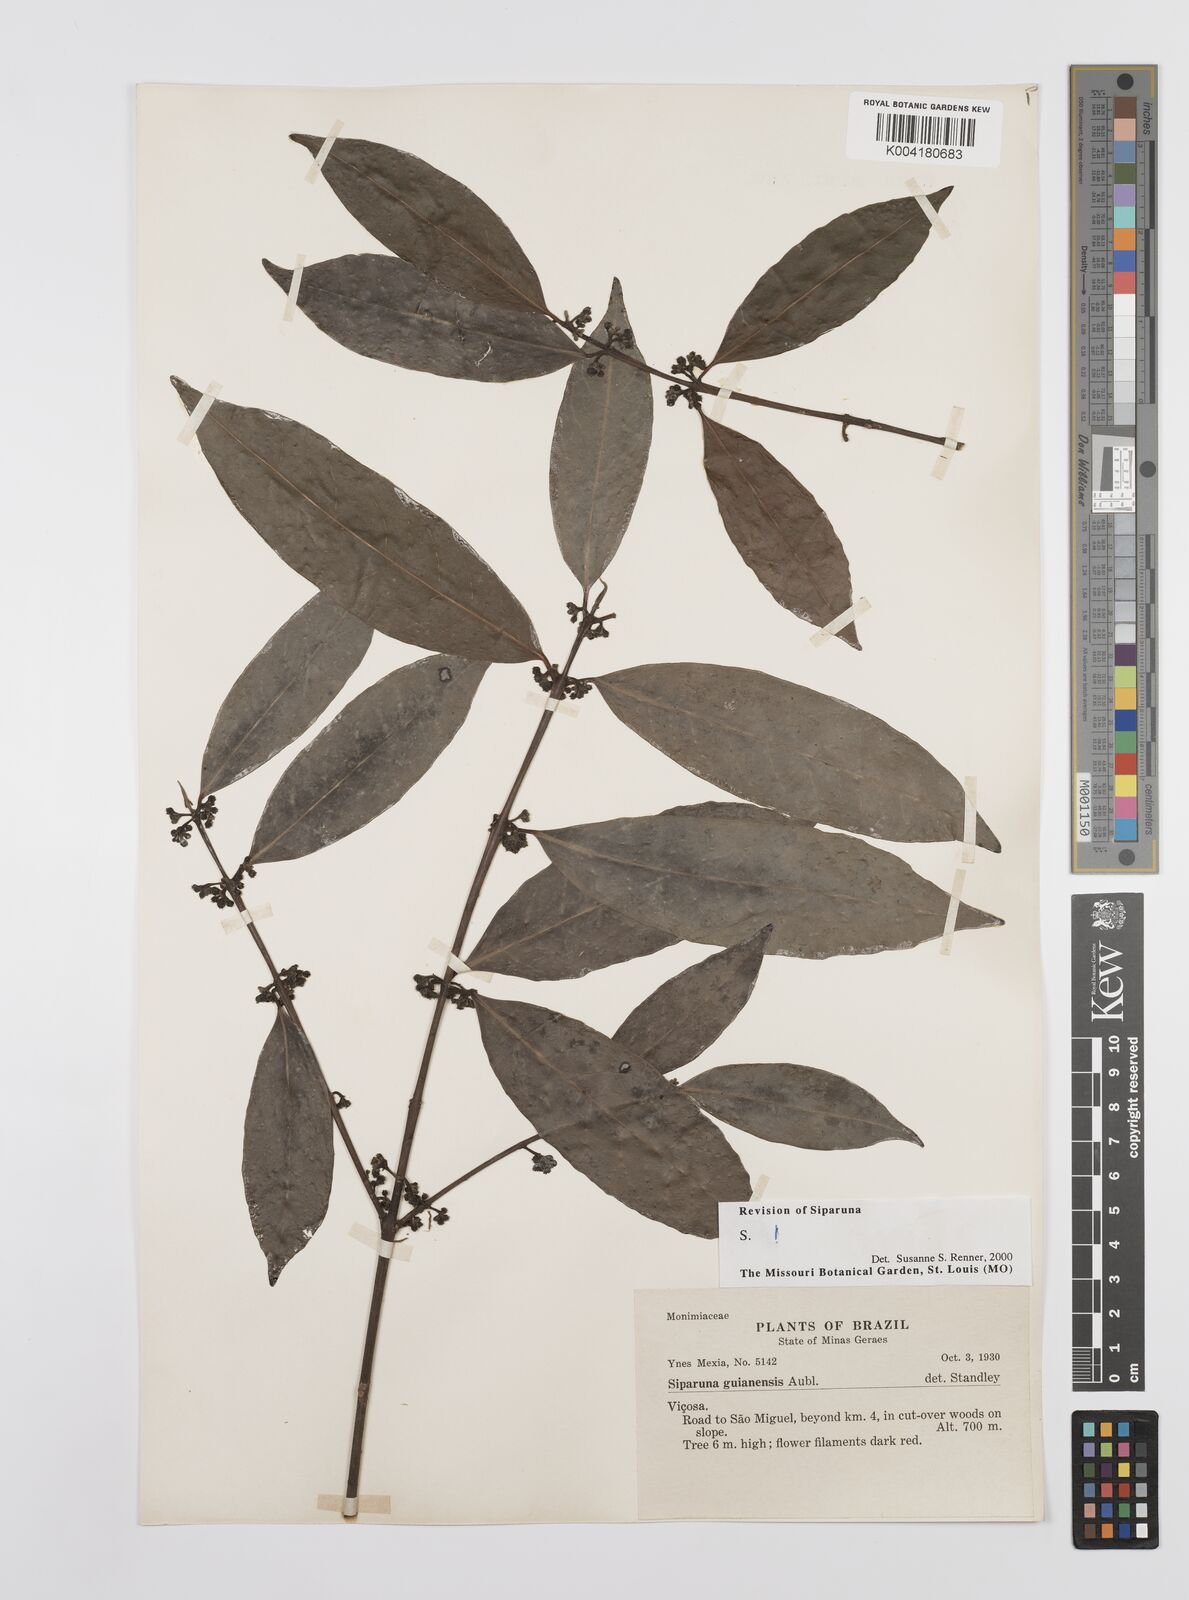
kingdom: Plantae
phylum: Tracheophyta
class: Magnoliopsida
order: Laurales
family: Siparunaceae
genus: Siparuna
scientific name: Siparuna guianensis
